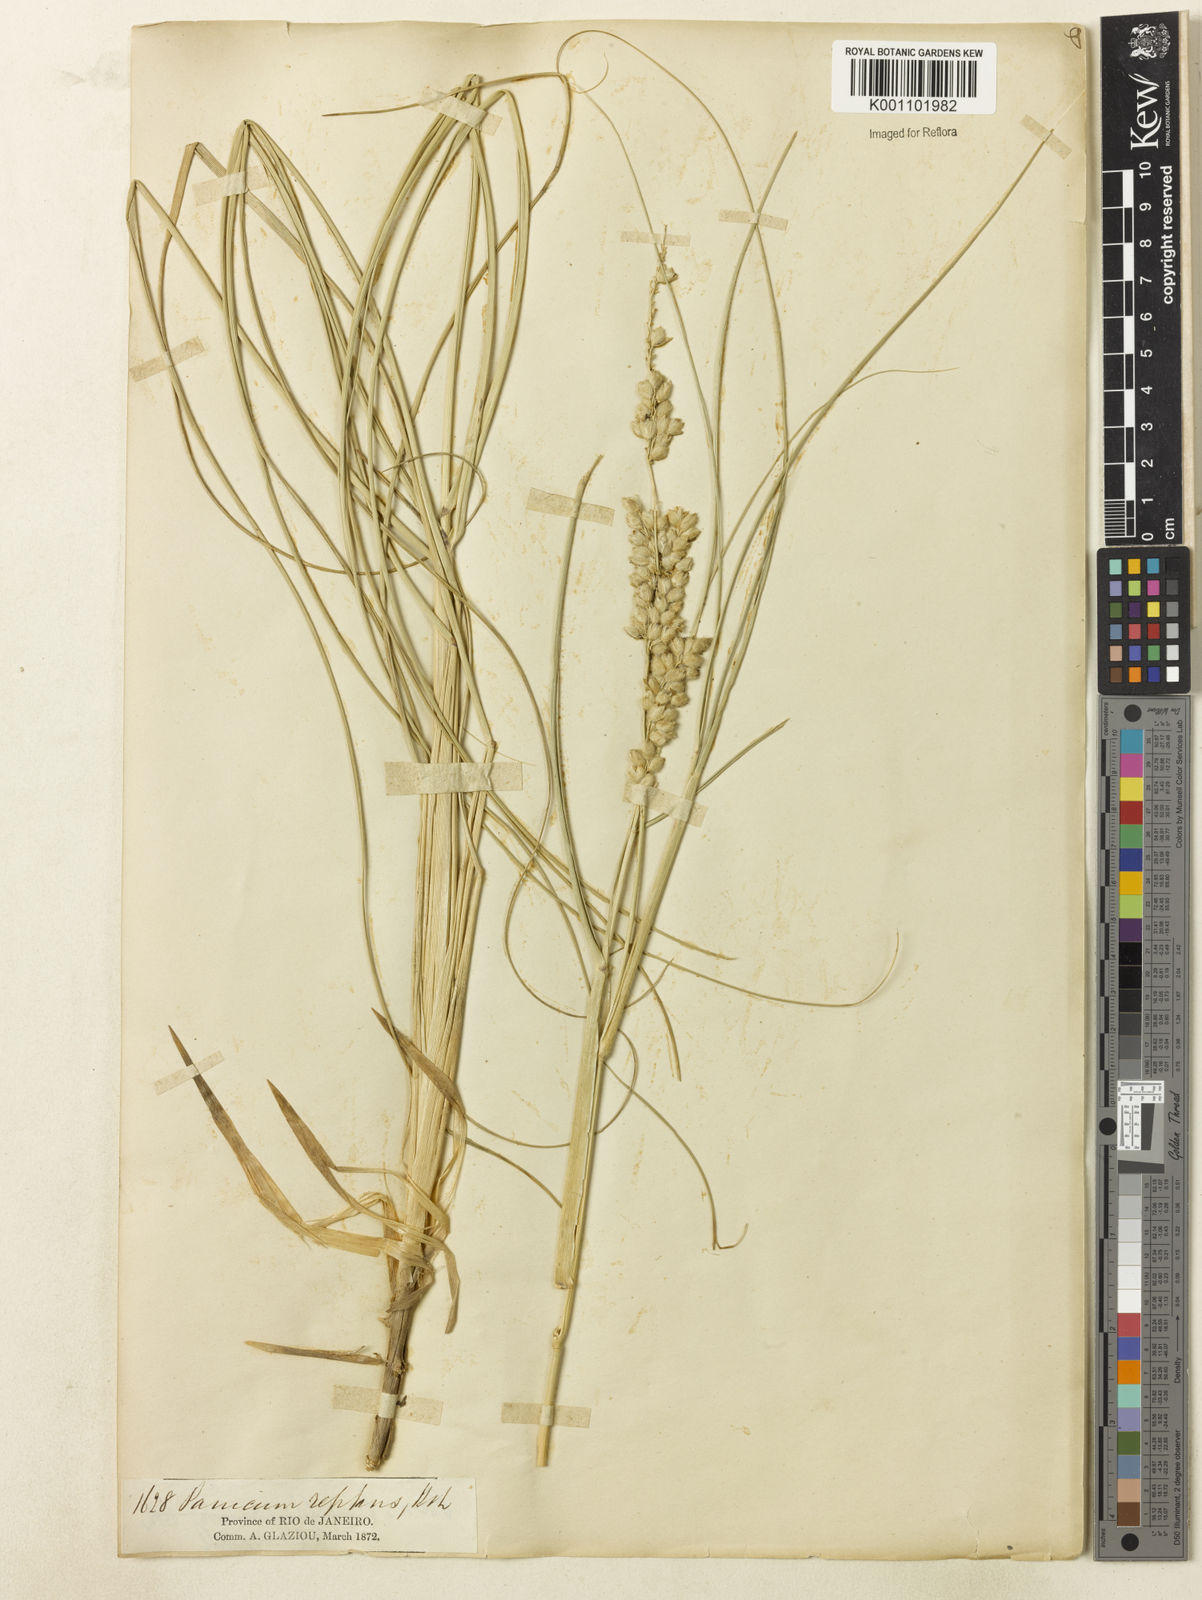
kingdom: Plantae
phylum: Tracheophyta
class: Liliopsida
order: Poales
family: Poaceae
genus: Panicum
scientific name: Panicum racemosum
